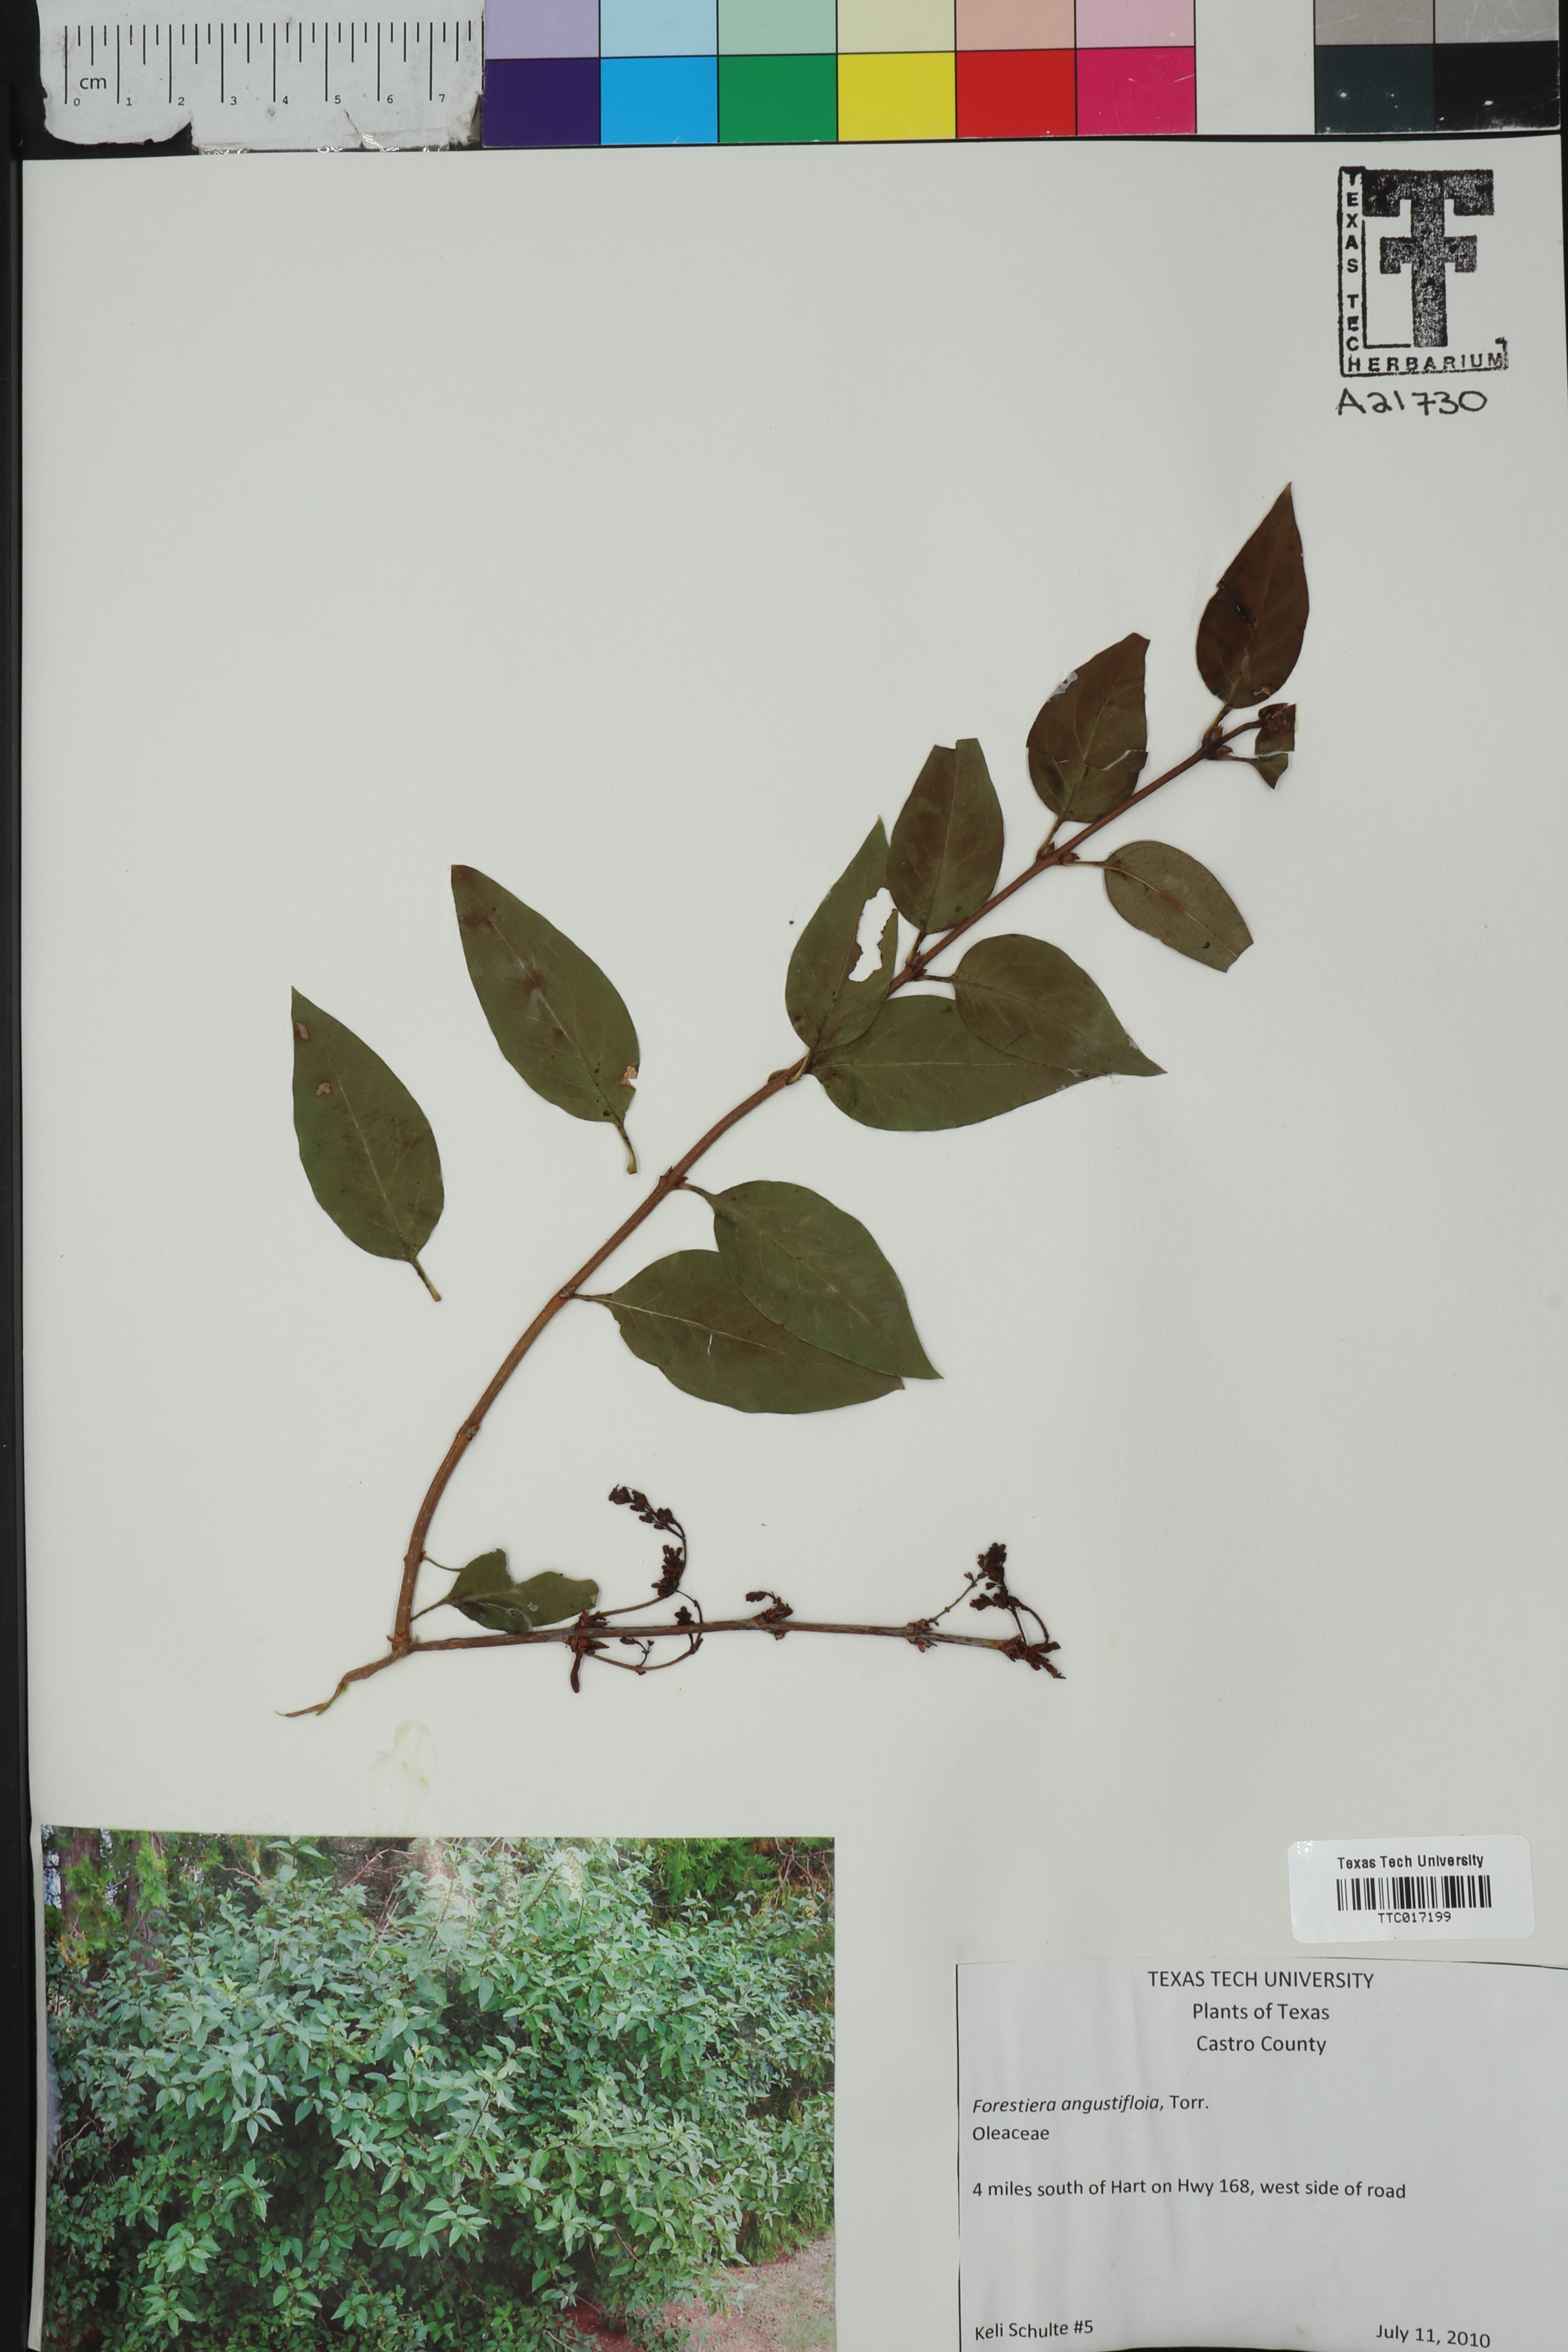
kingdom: Plantae
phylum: Tracheophyta
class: Magnoliopsida
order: Lamiales
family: Oleaceae
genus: Forestiera
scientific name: Forestiera angustifolia
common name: Elbowbush
